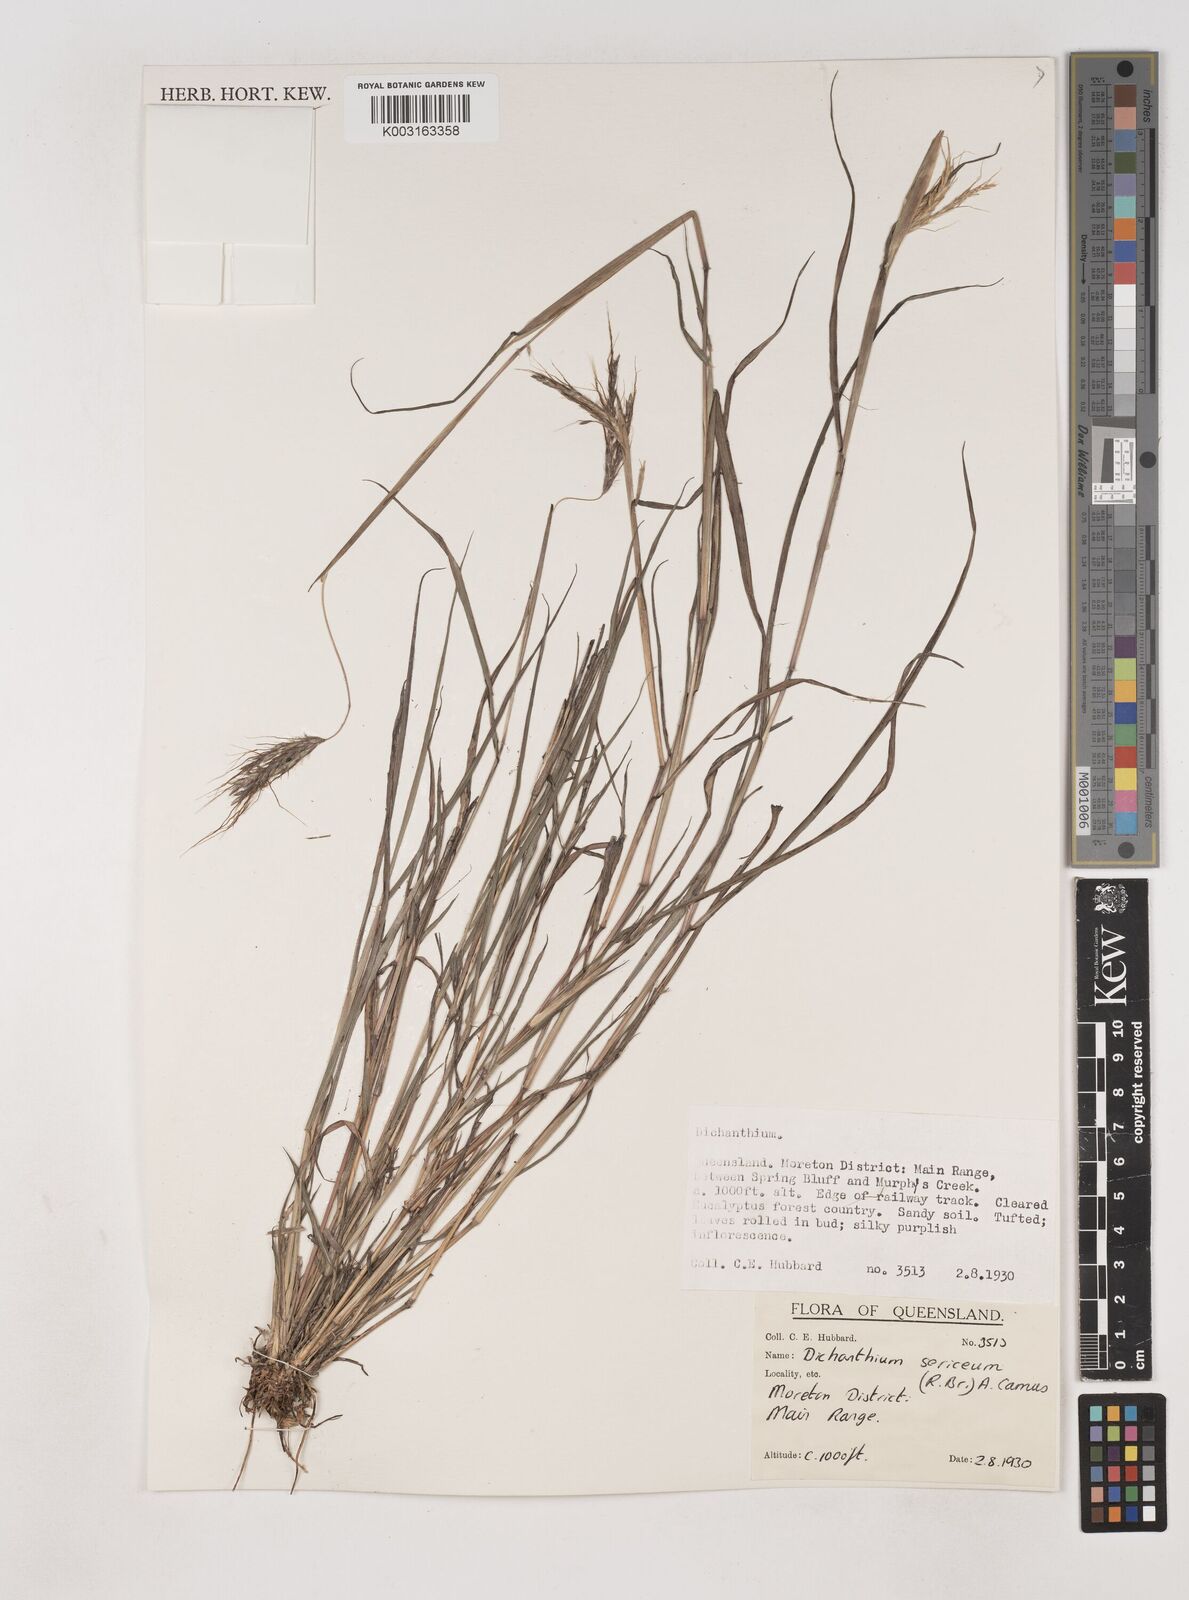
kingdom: Plantae
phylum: Tracheophyta
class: Liliopsida
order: Poales
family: Poaceae
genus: Dichanthium
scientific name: Dichanthium sericeum
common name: Silky bluestem
